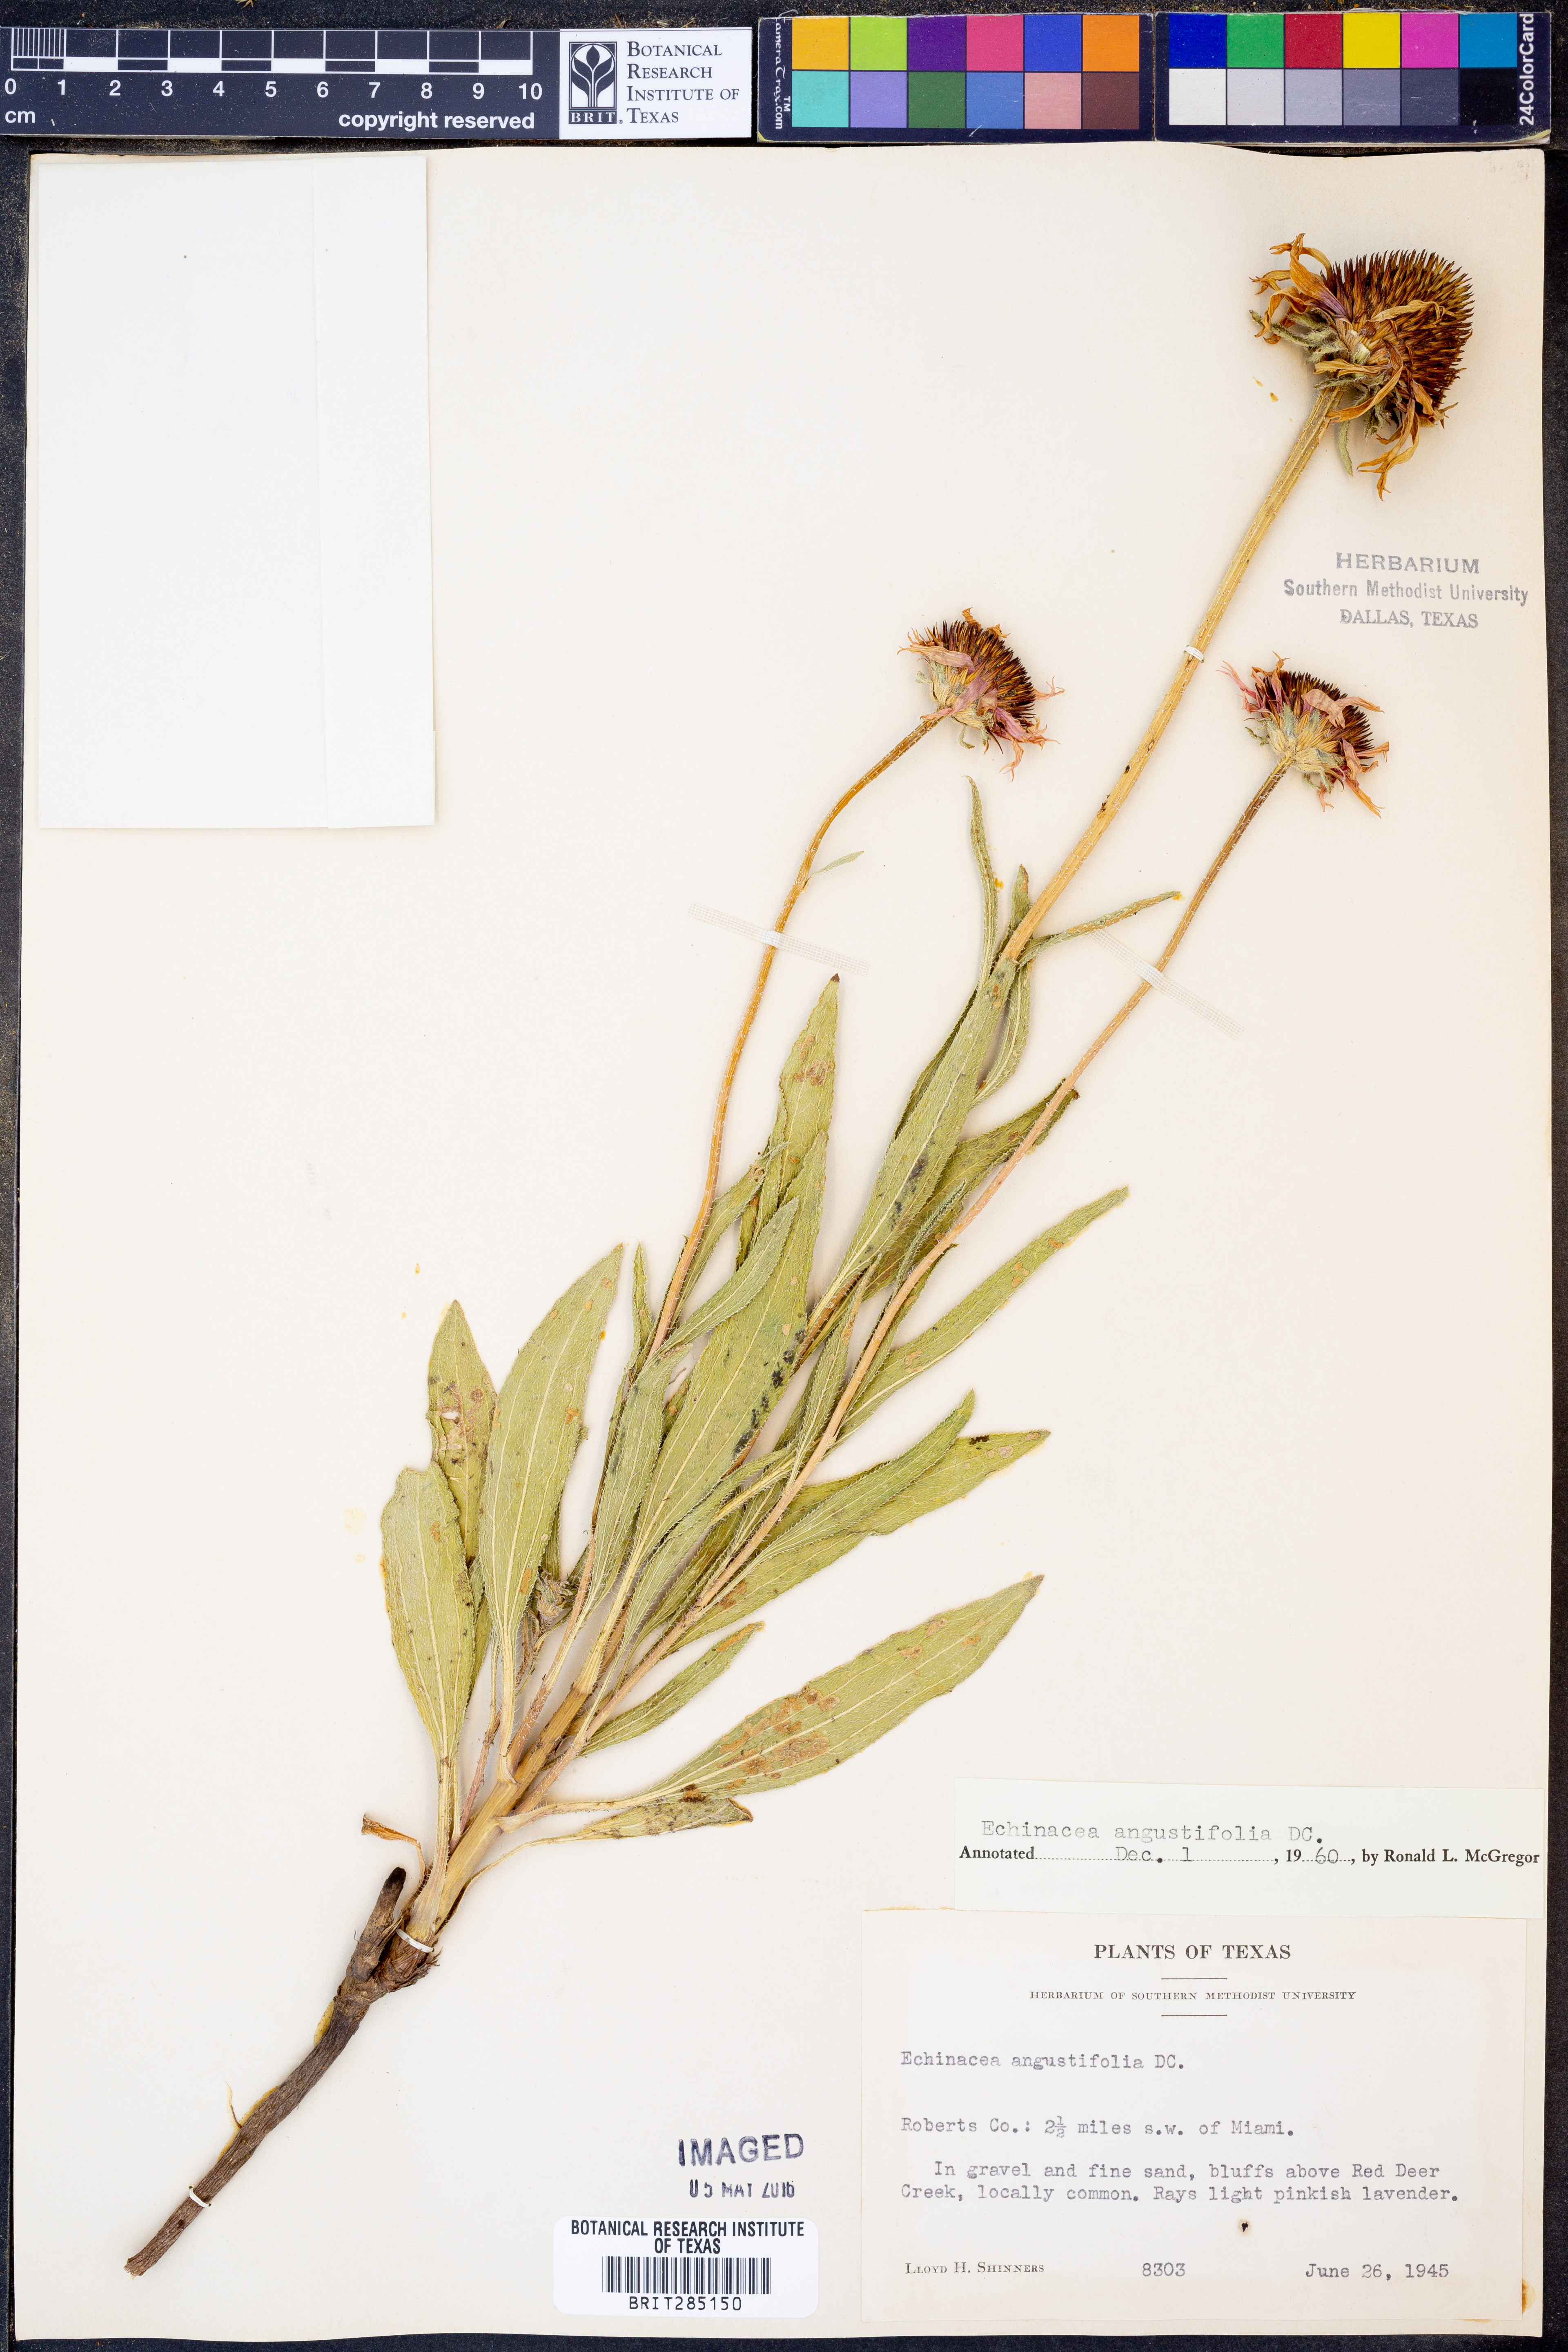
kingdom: Plantae
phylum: Tracheophyta
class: Magnoliopsida
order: Asterales
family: Asteraceae
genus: Echinacea
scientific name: Echinacea angustifolia
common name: Black-sampson echinacea
